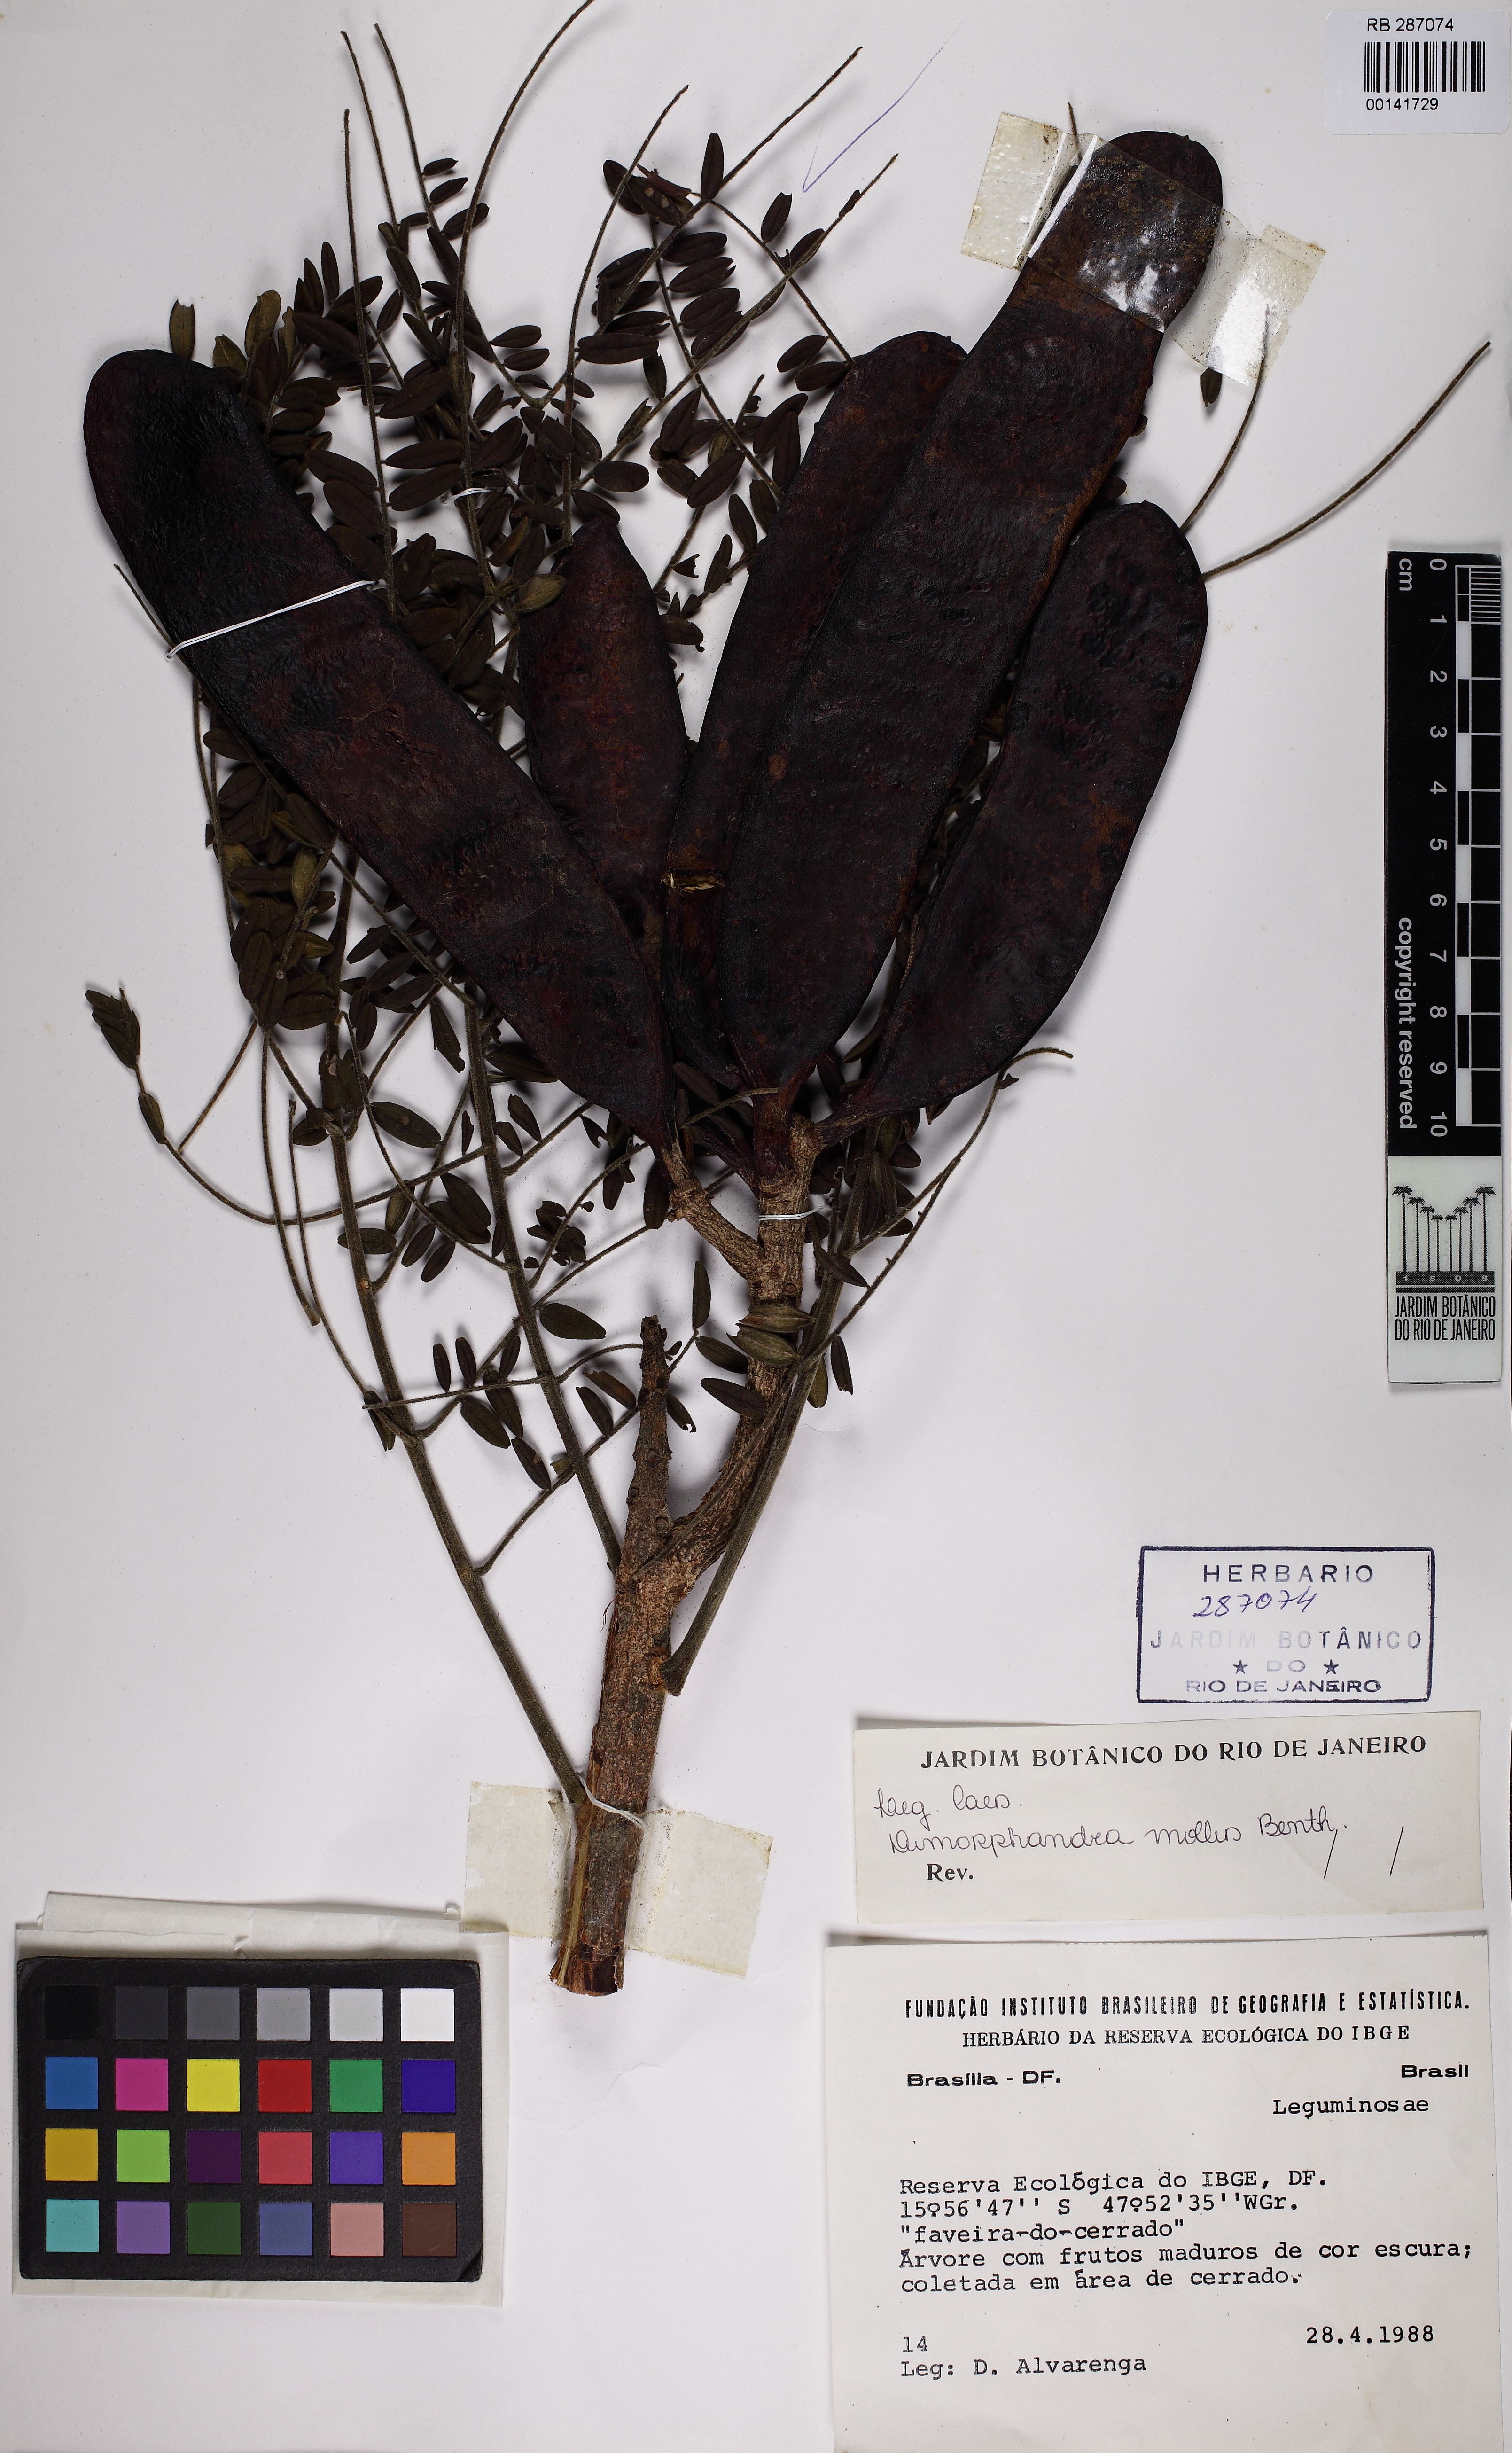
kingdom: Plantae
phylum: Tracheophyta
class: Magnoliopsida
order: Fabales
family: Fabaceae
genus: Dimorphandra
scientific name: Dimorphandra mollis
